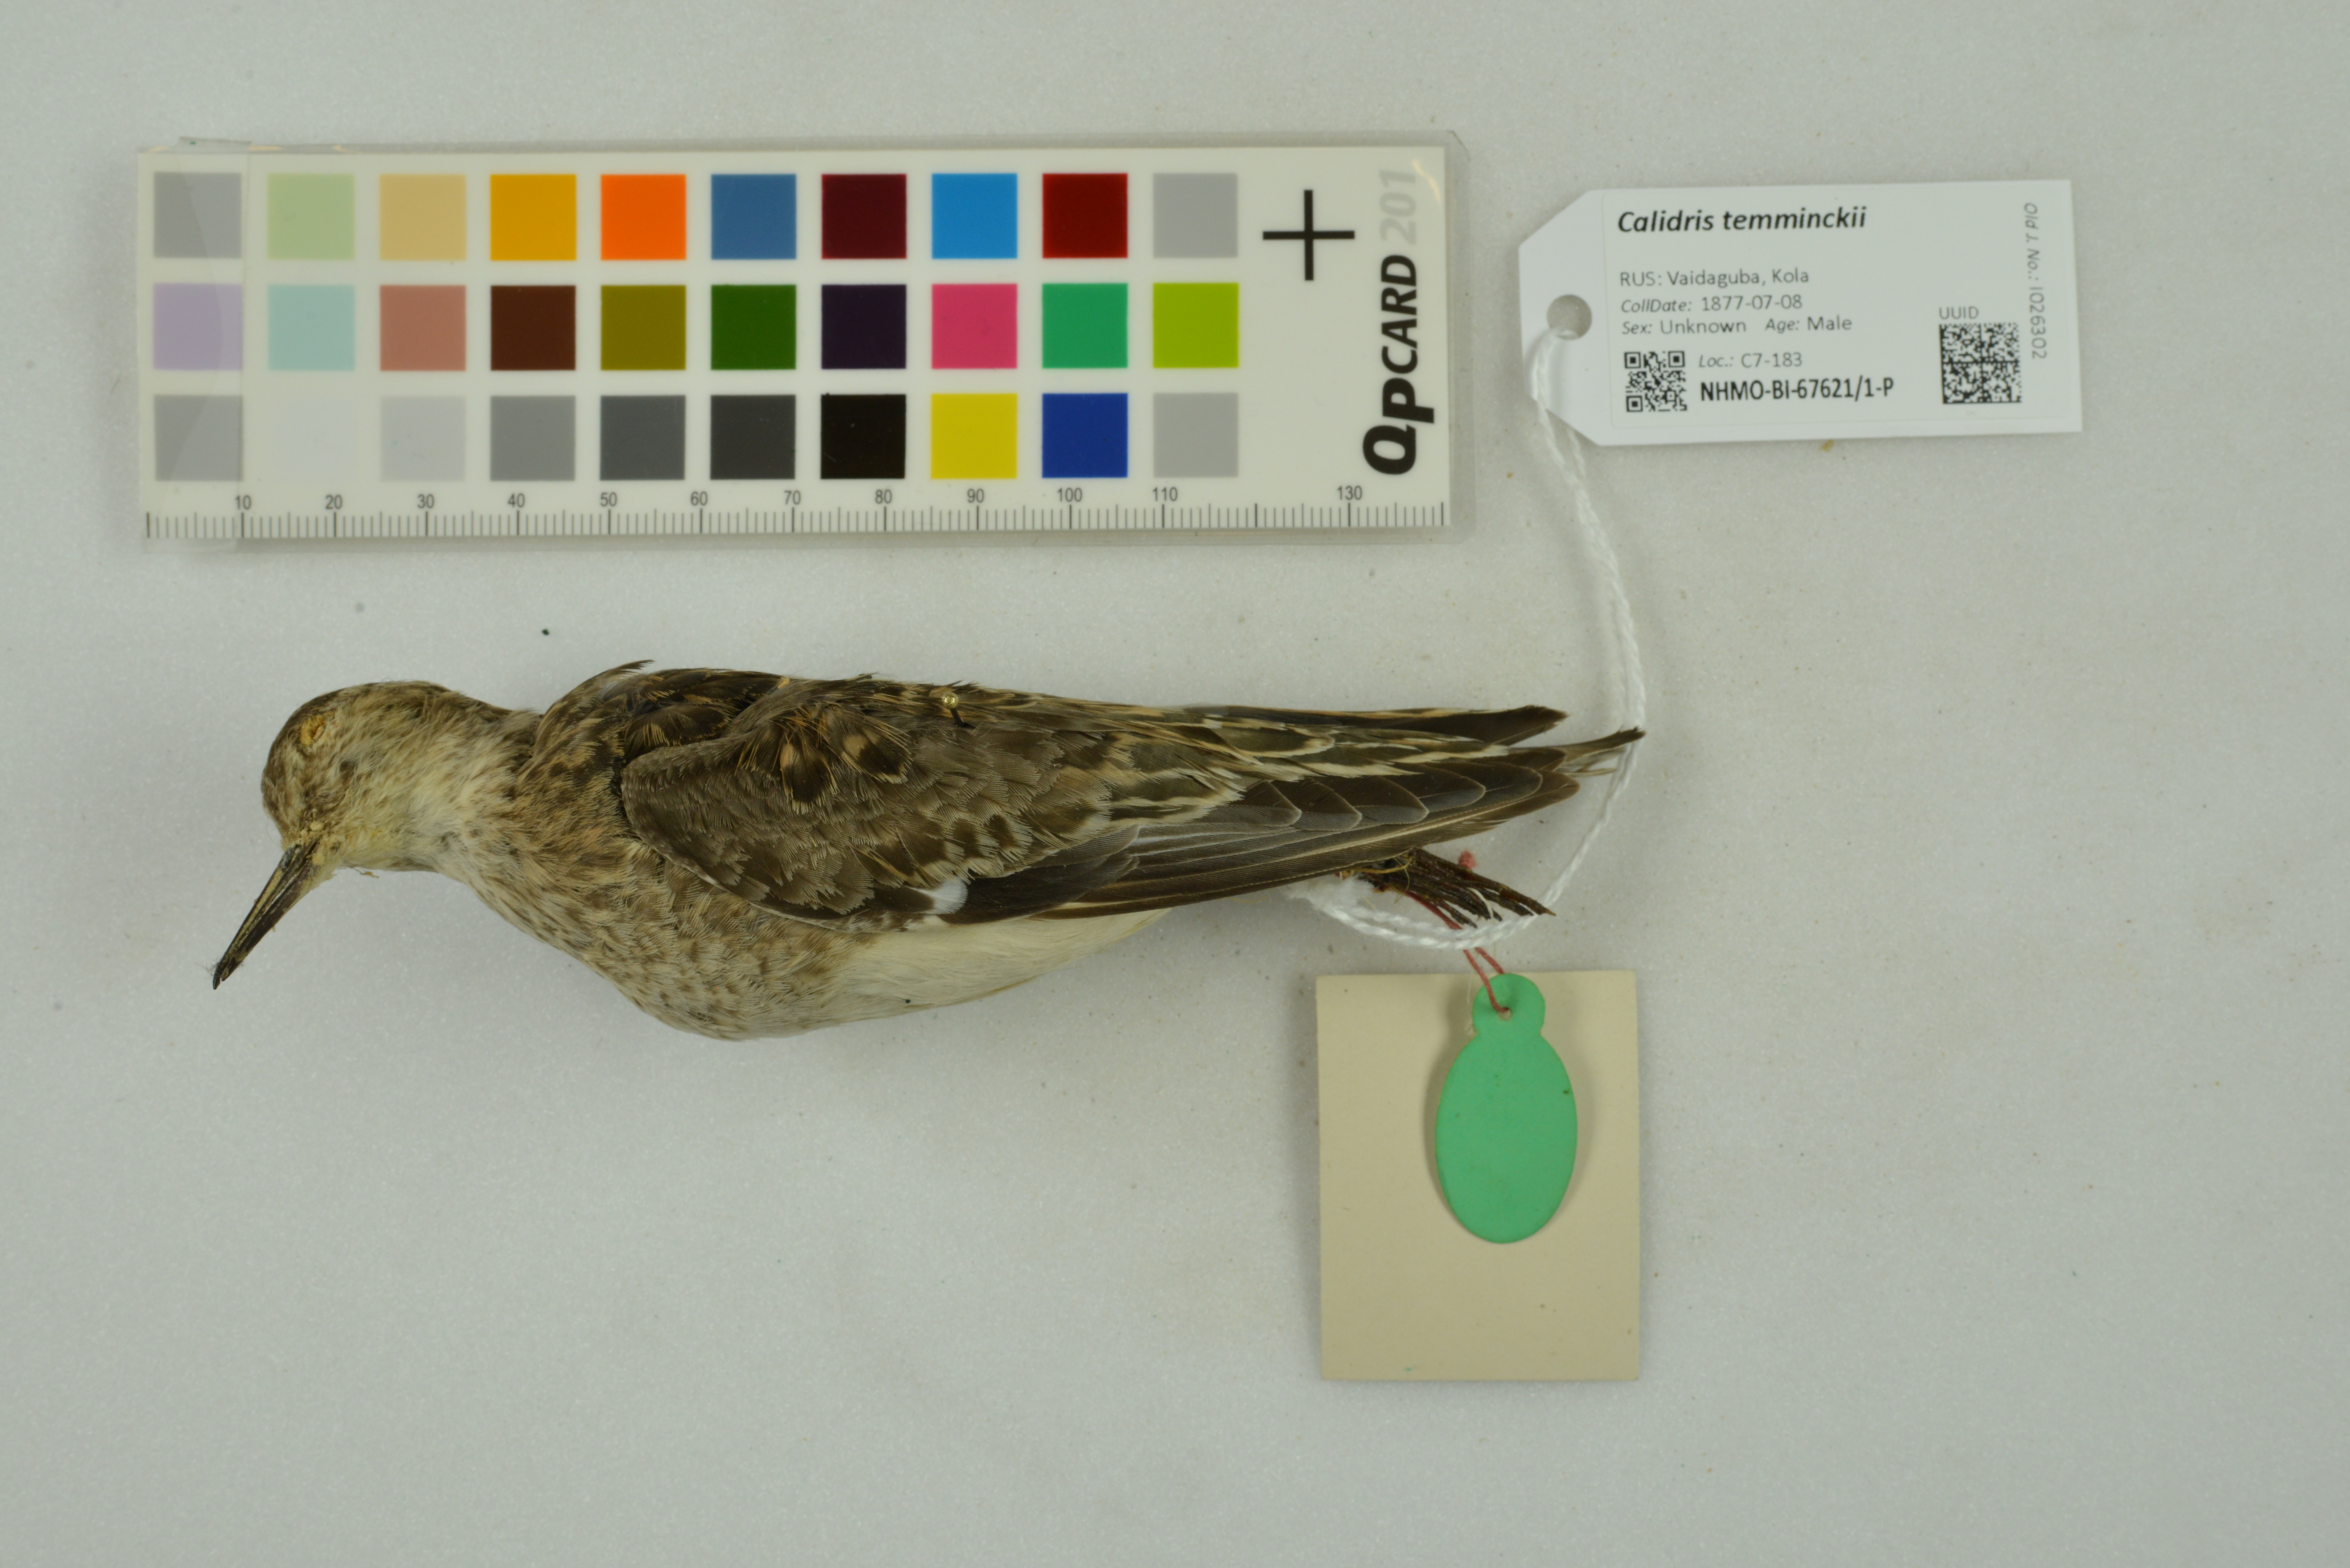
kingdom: Animalia
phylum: Chordata
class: Aves
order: Charadriiformes
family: Scolopacidae
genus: Calidris
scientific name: Calidris temminckii
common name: Temminck's stint
